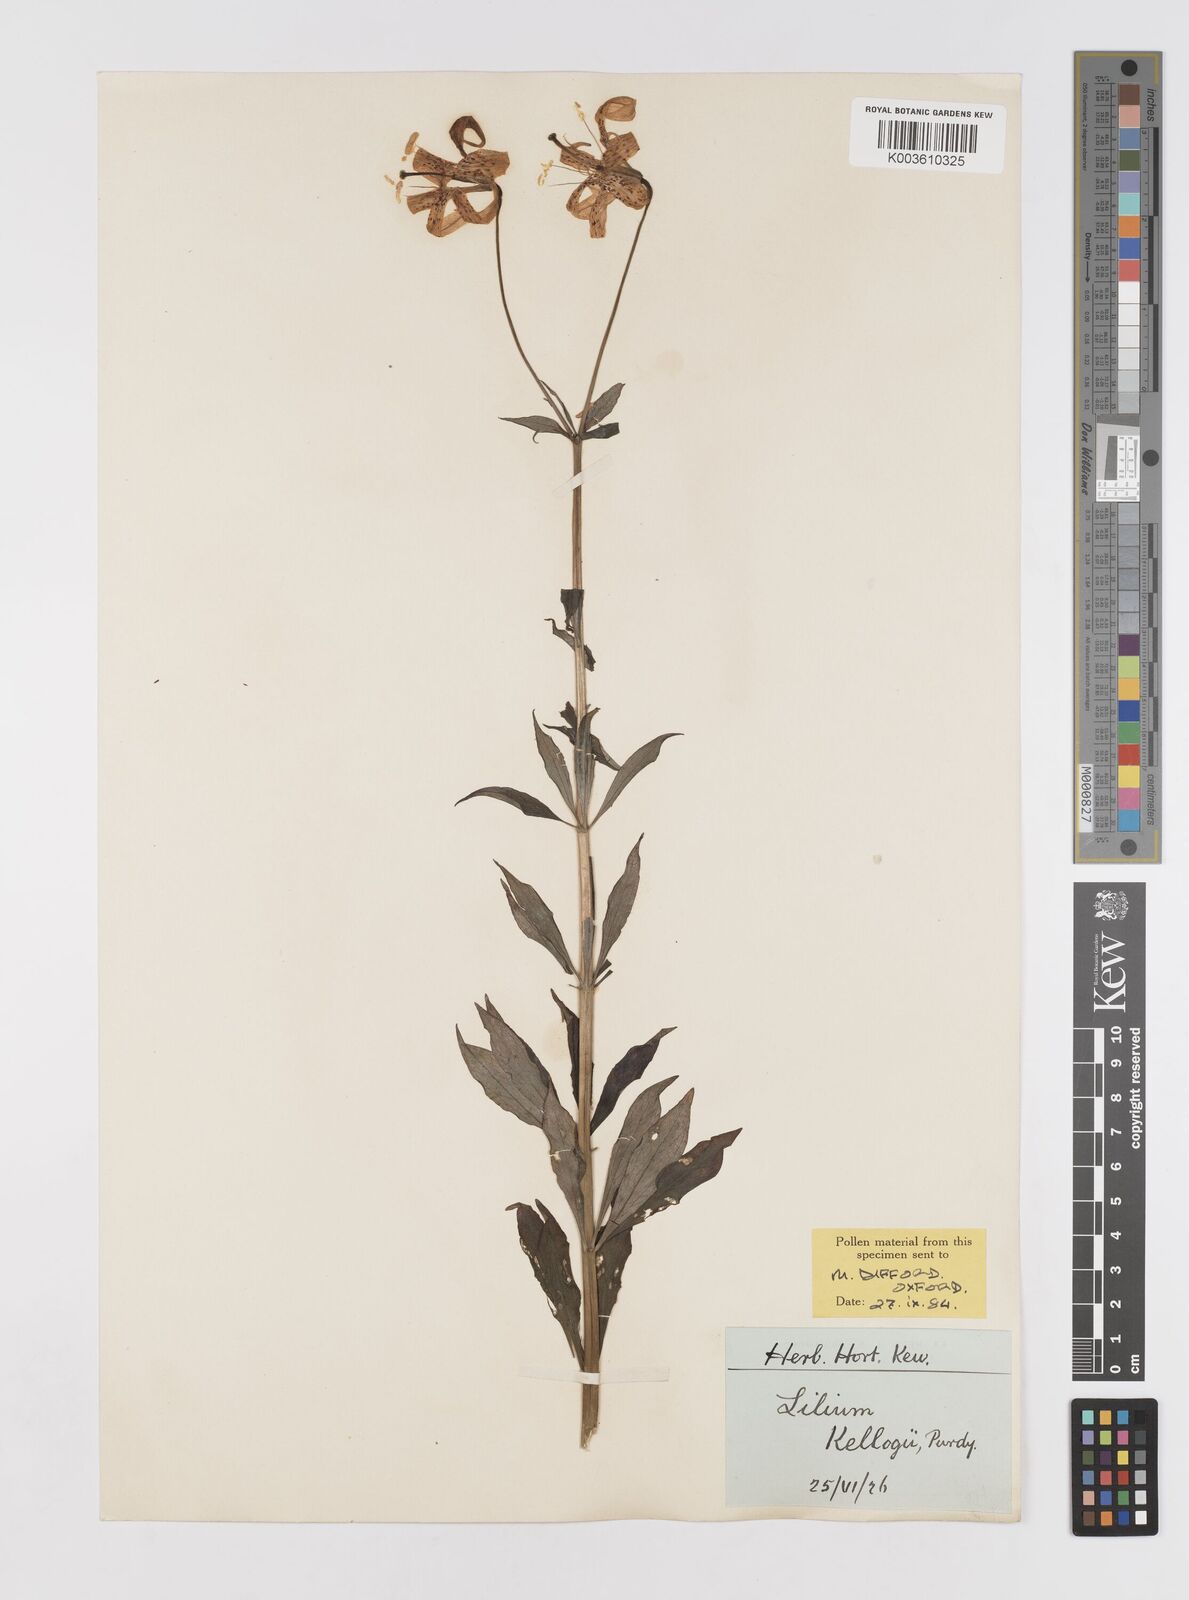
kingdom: Plantae
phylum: Tracheophyta
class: Liliopsida
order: Liliales
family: Liliaceae
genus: Lilium
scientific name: Lilium kelloggii
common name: Kellogg's lily
